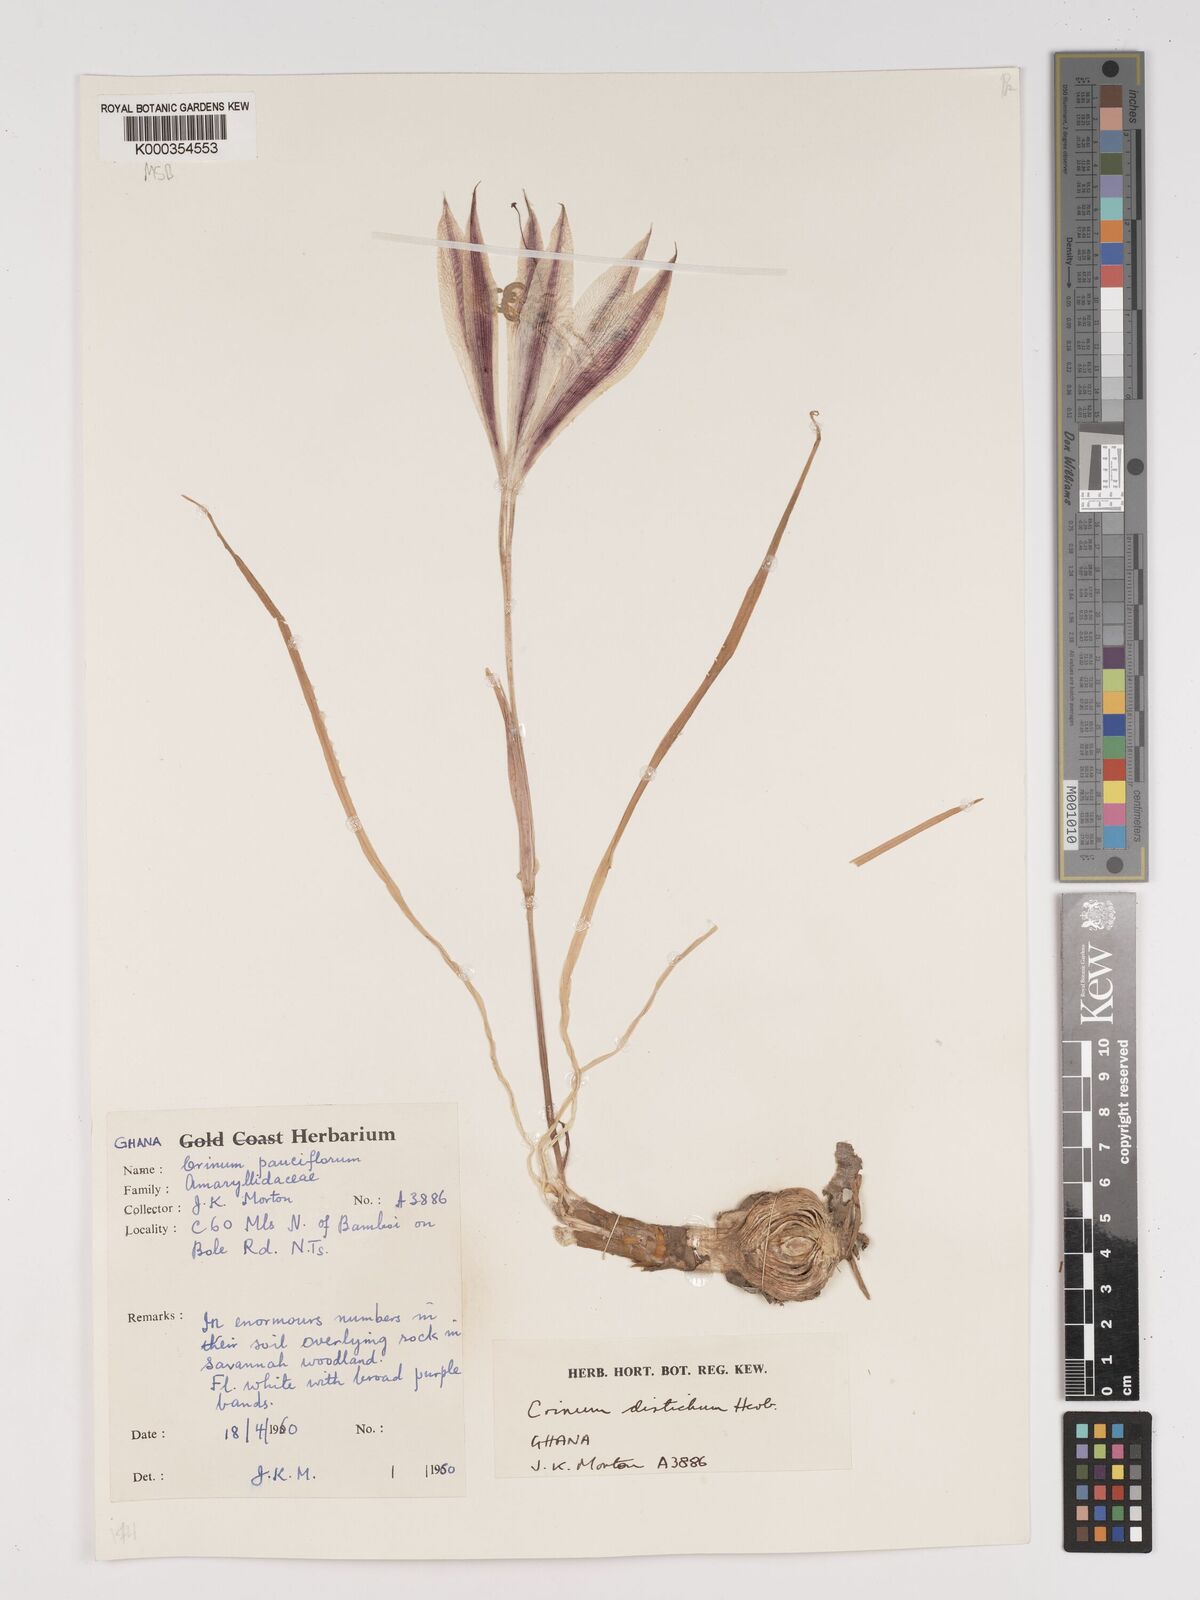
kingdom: Plantae
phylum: Tracheophyta
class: Liliopsida
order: Asparagales
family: Amaryllidaceae
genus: Crinum
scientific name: Crinum zeylanicum
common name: Ceylon swamplily
